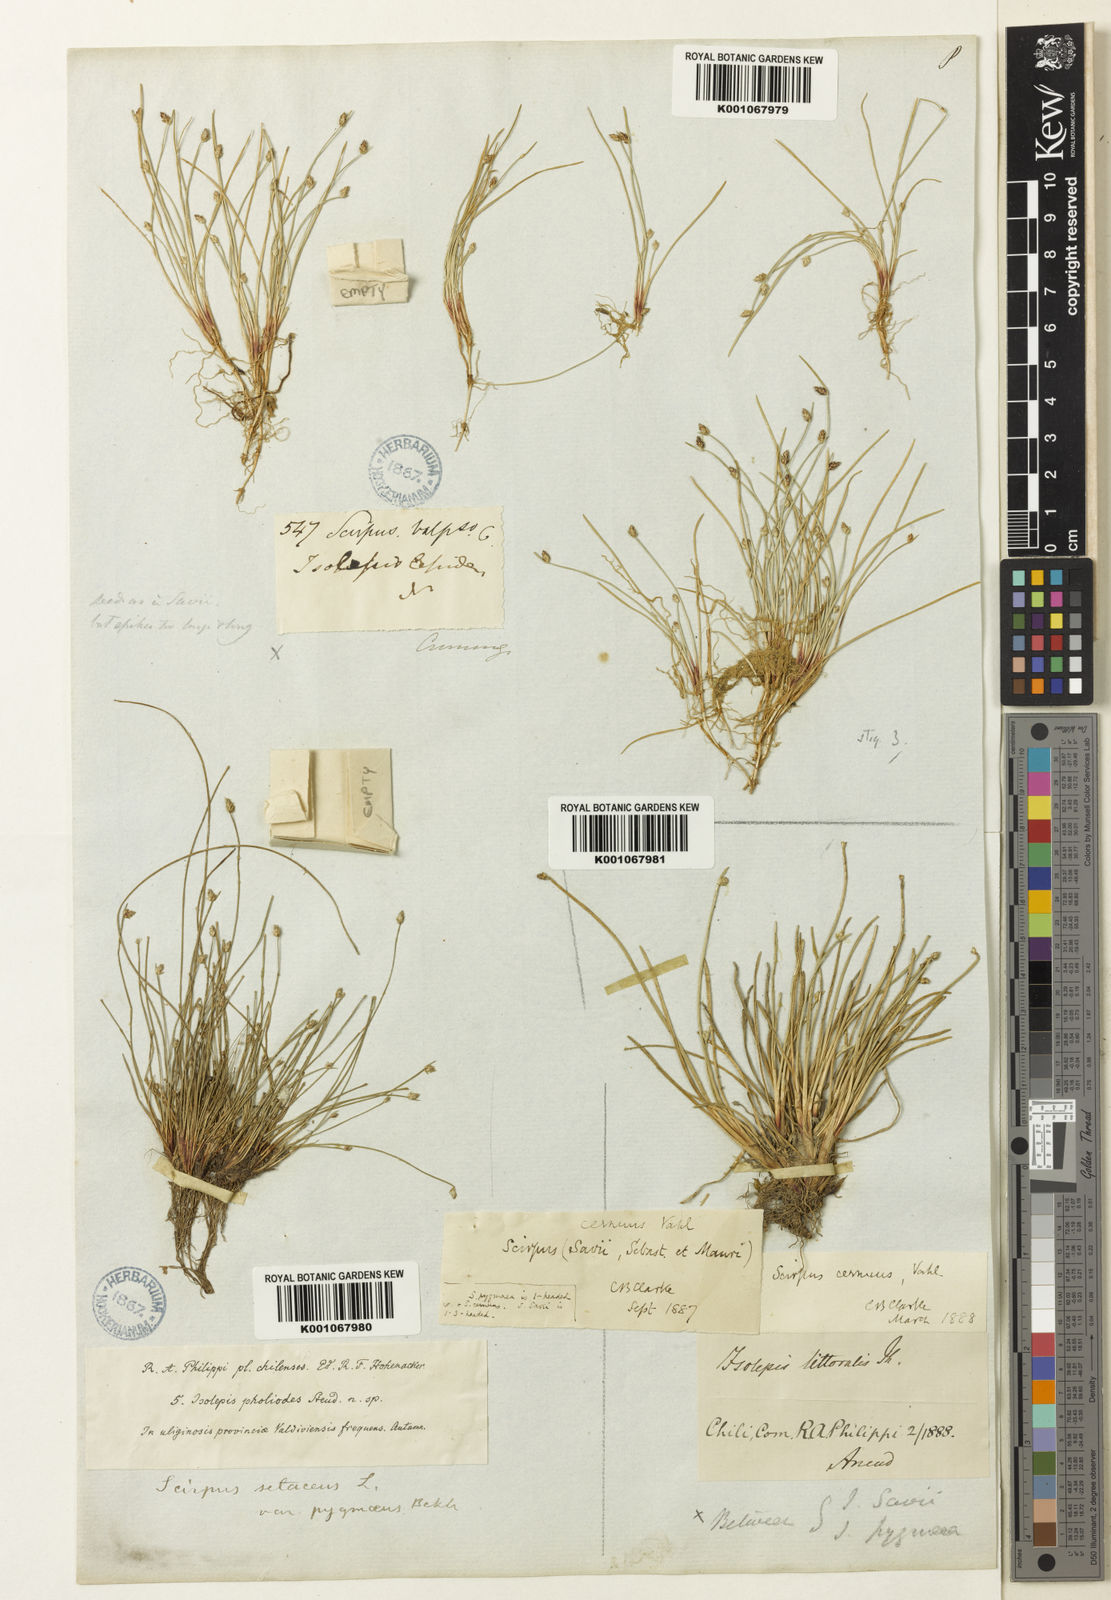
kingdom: Plantae
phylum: Tracheophyta
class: Liliopsida
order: Poales
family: Cyperaceae
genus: Isolepis
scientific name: Isolepis ranko
